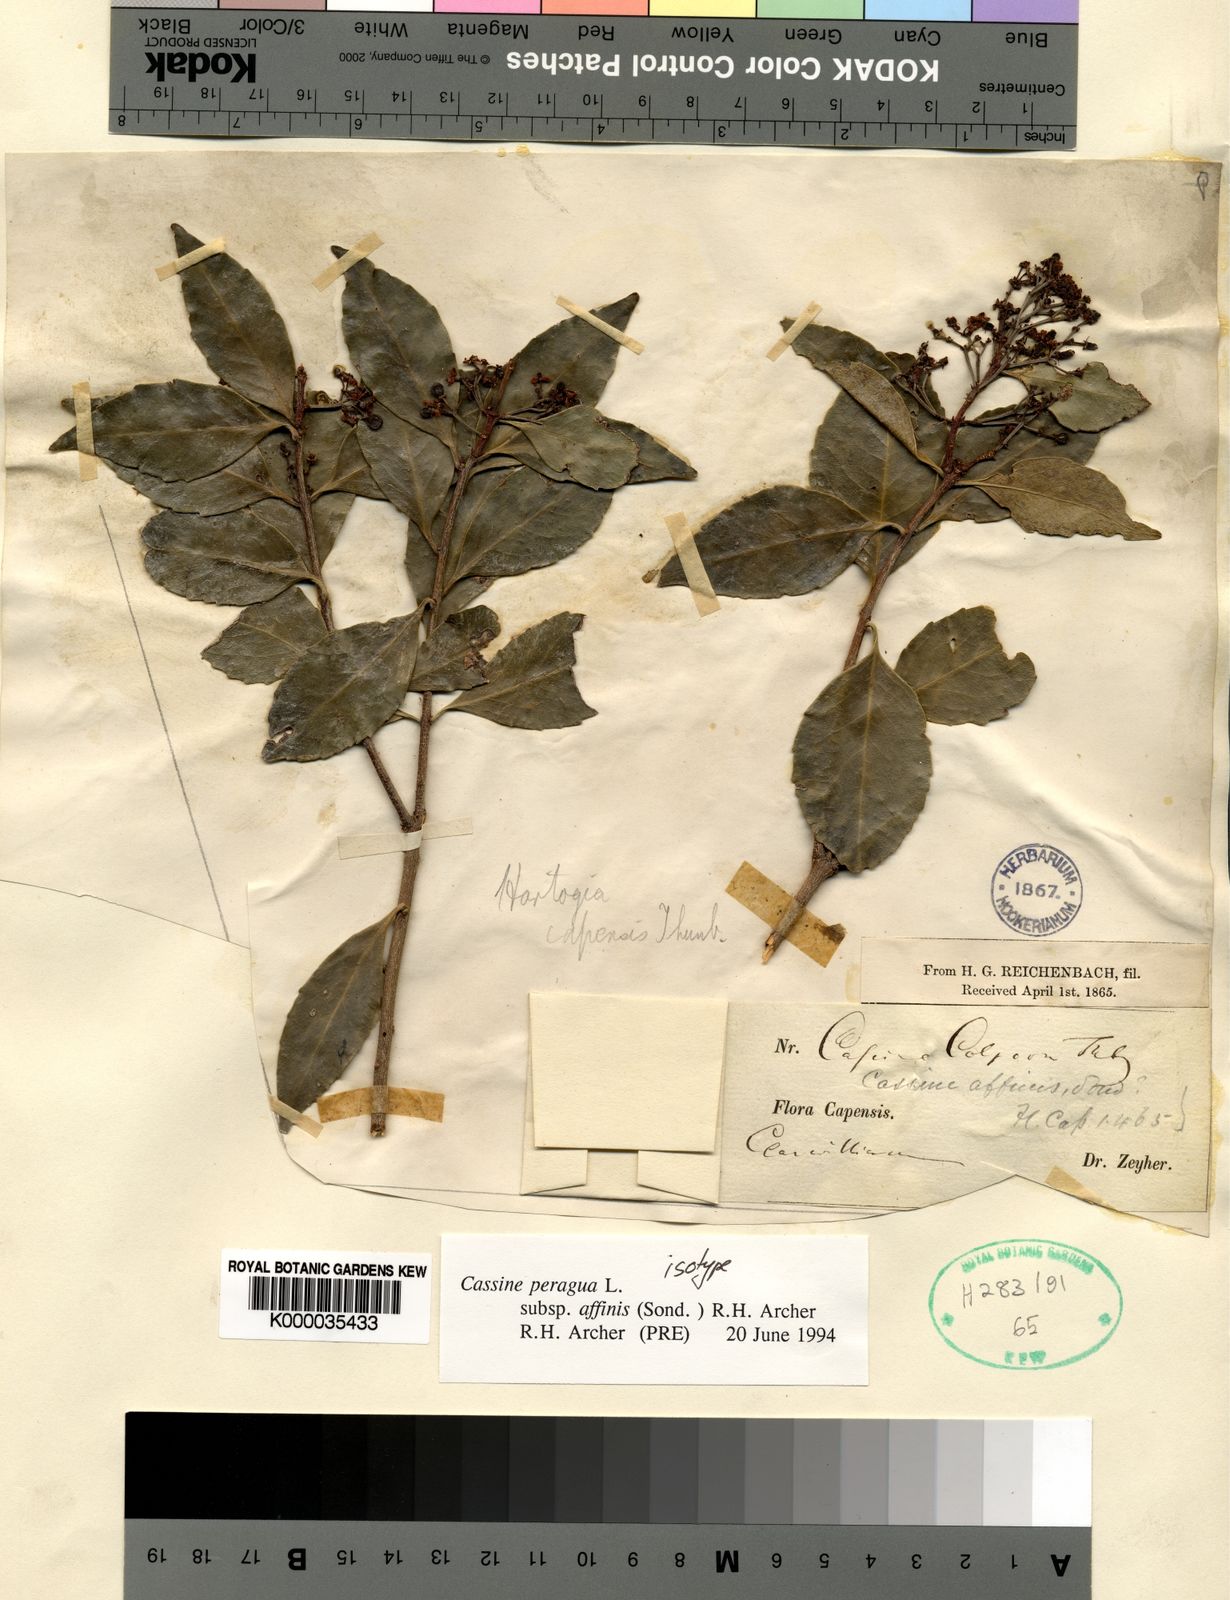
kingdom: Plantae
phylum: Tracheophyta
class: Magnoliopsida
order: Celastrales
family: Celastraceae
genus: Cassine
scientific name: Cassine peragua
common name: Cape saffron
